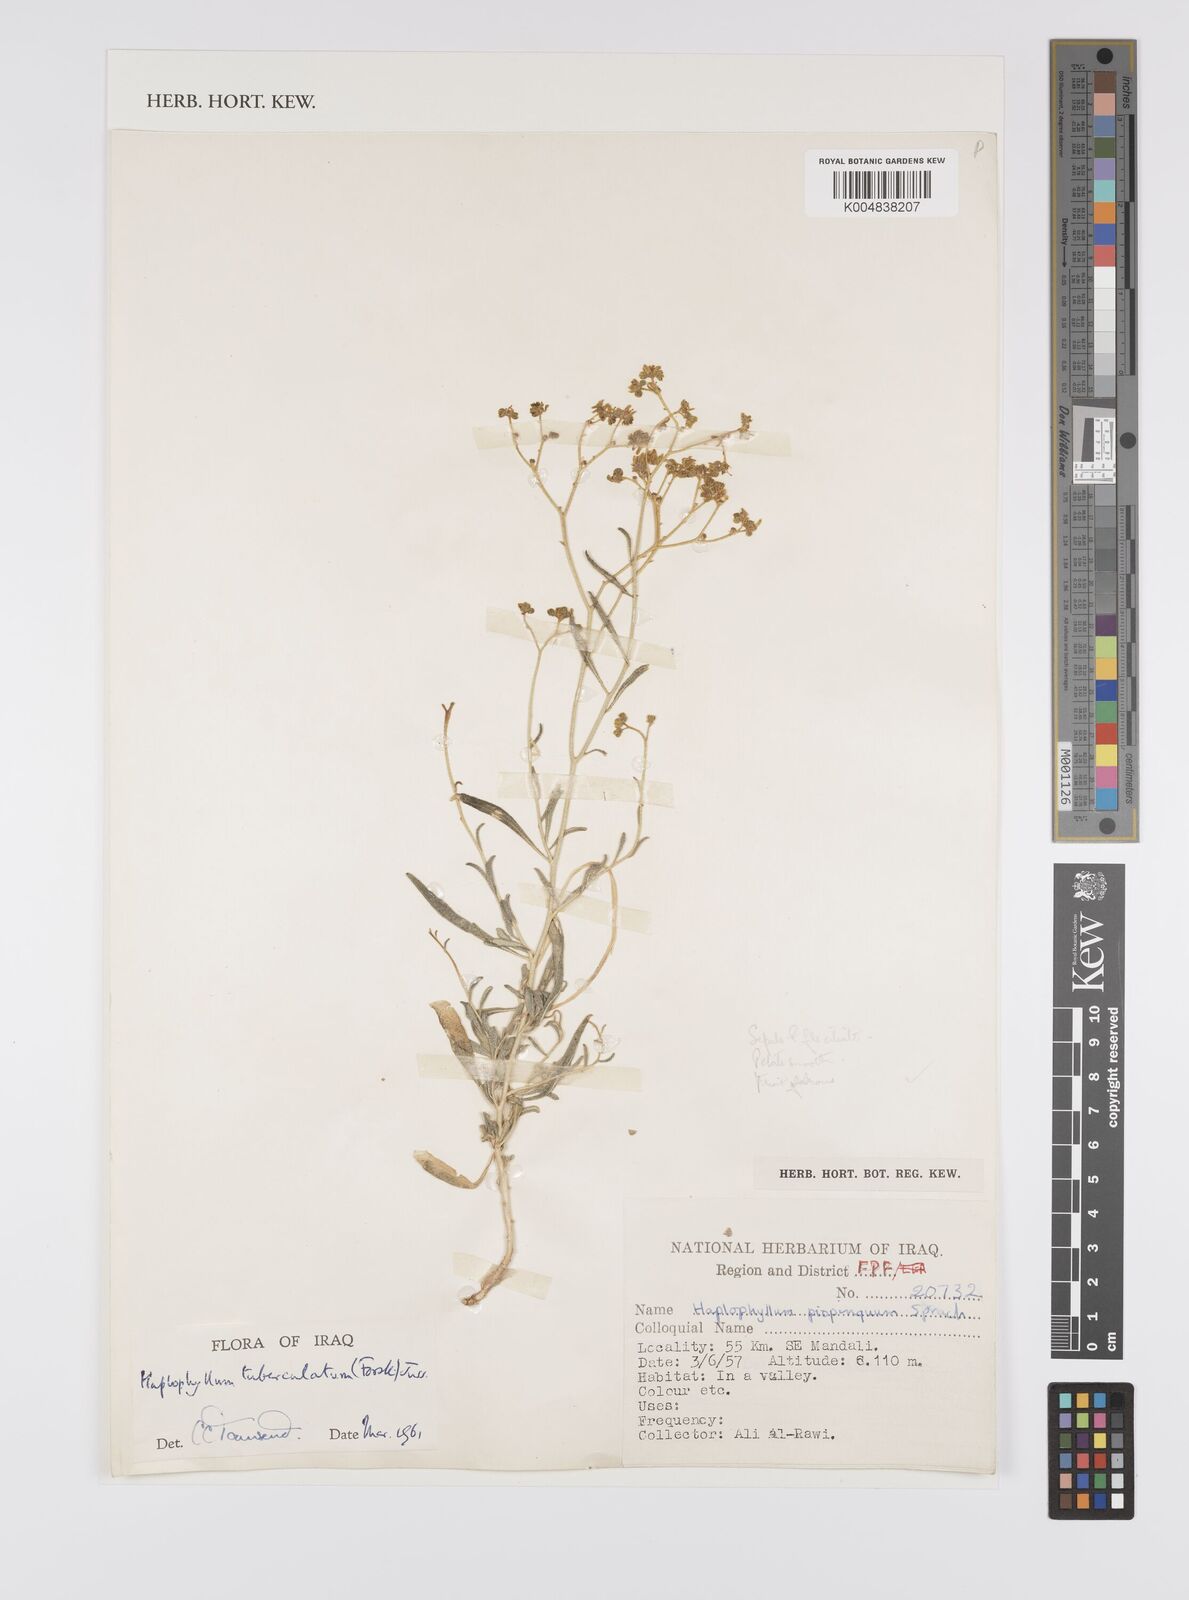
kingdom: Plantae
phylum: Tracheophyta
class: Magnoliopsida
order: Sapindales
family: Rutaceae
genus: Haplophyllum
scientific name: Haplophyllum tuberculatum
